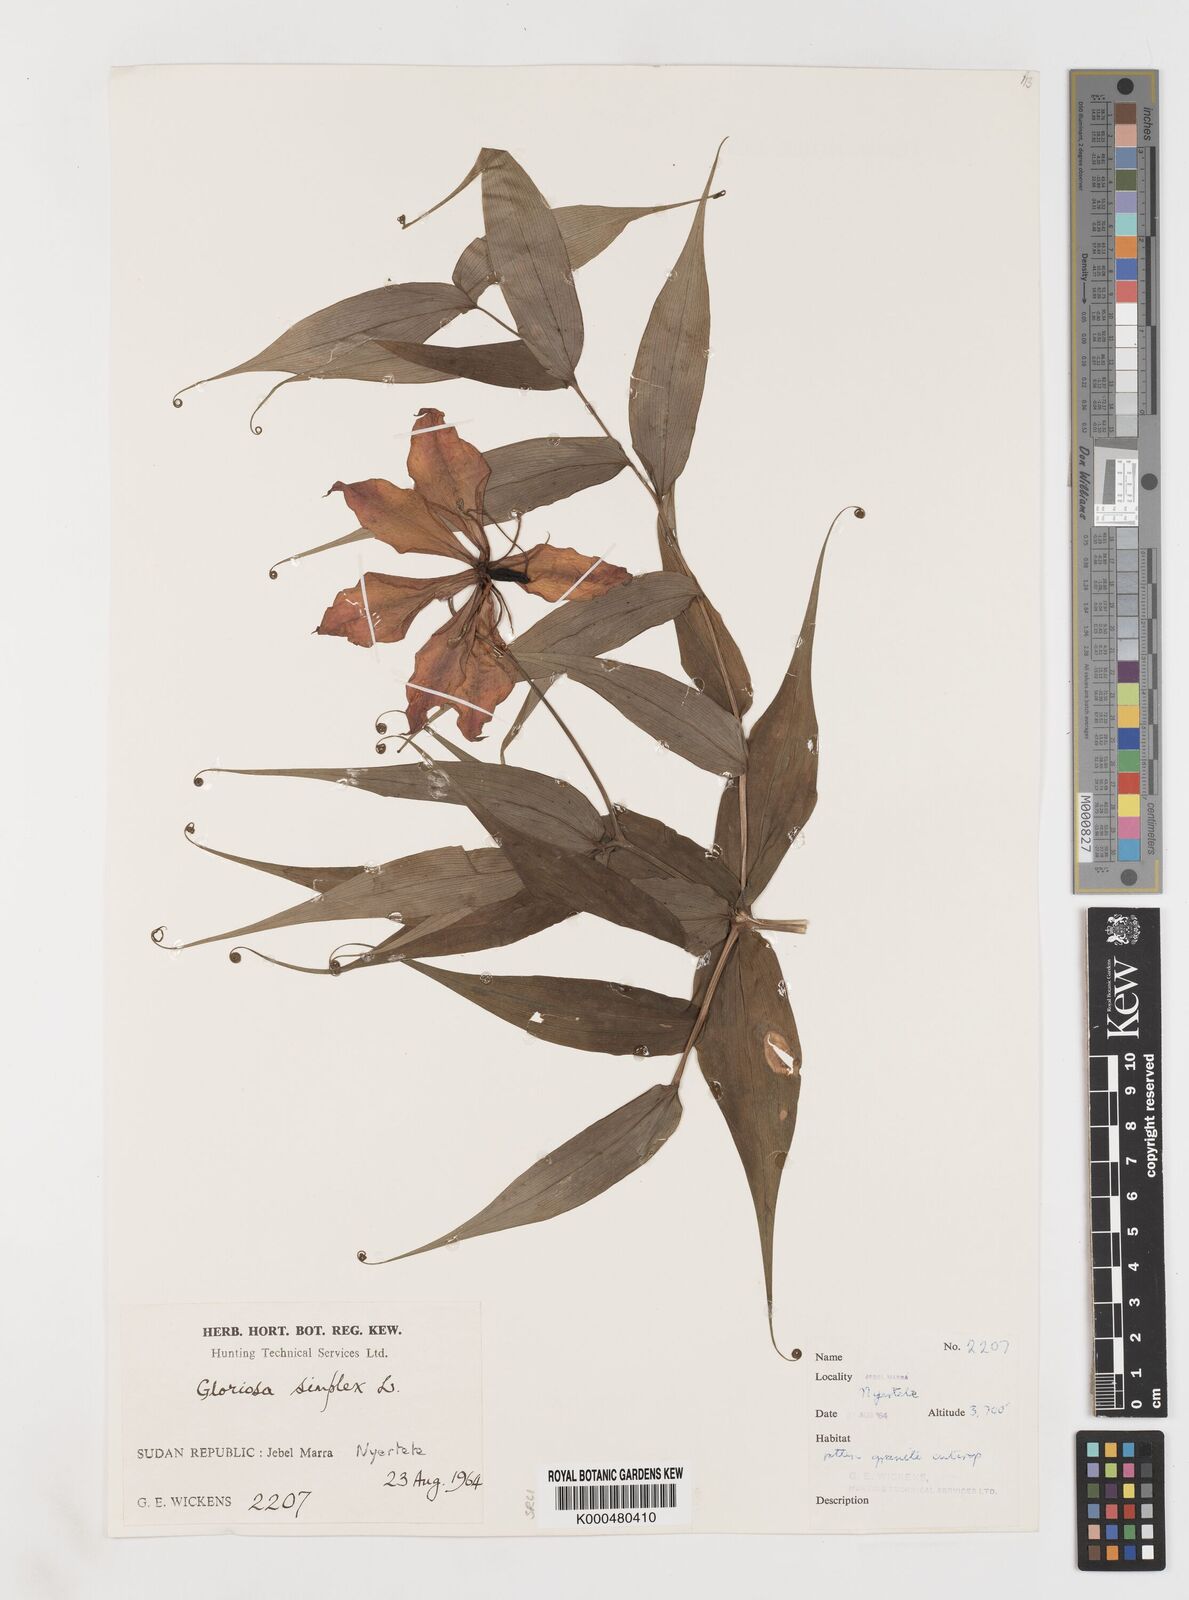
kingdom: Plantae
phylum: Tracheophyta
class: Liliopsida
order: Liliales
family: Colchicaceae
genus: Gloriosa
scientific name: Gloriosa simplex
